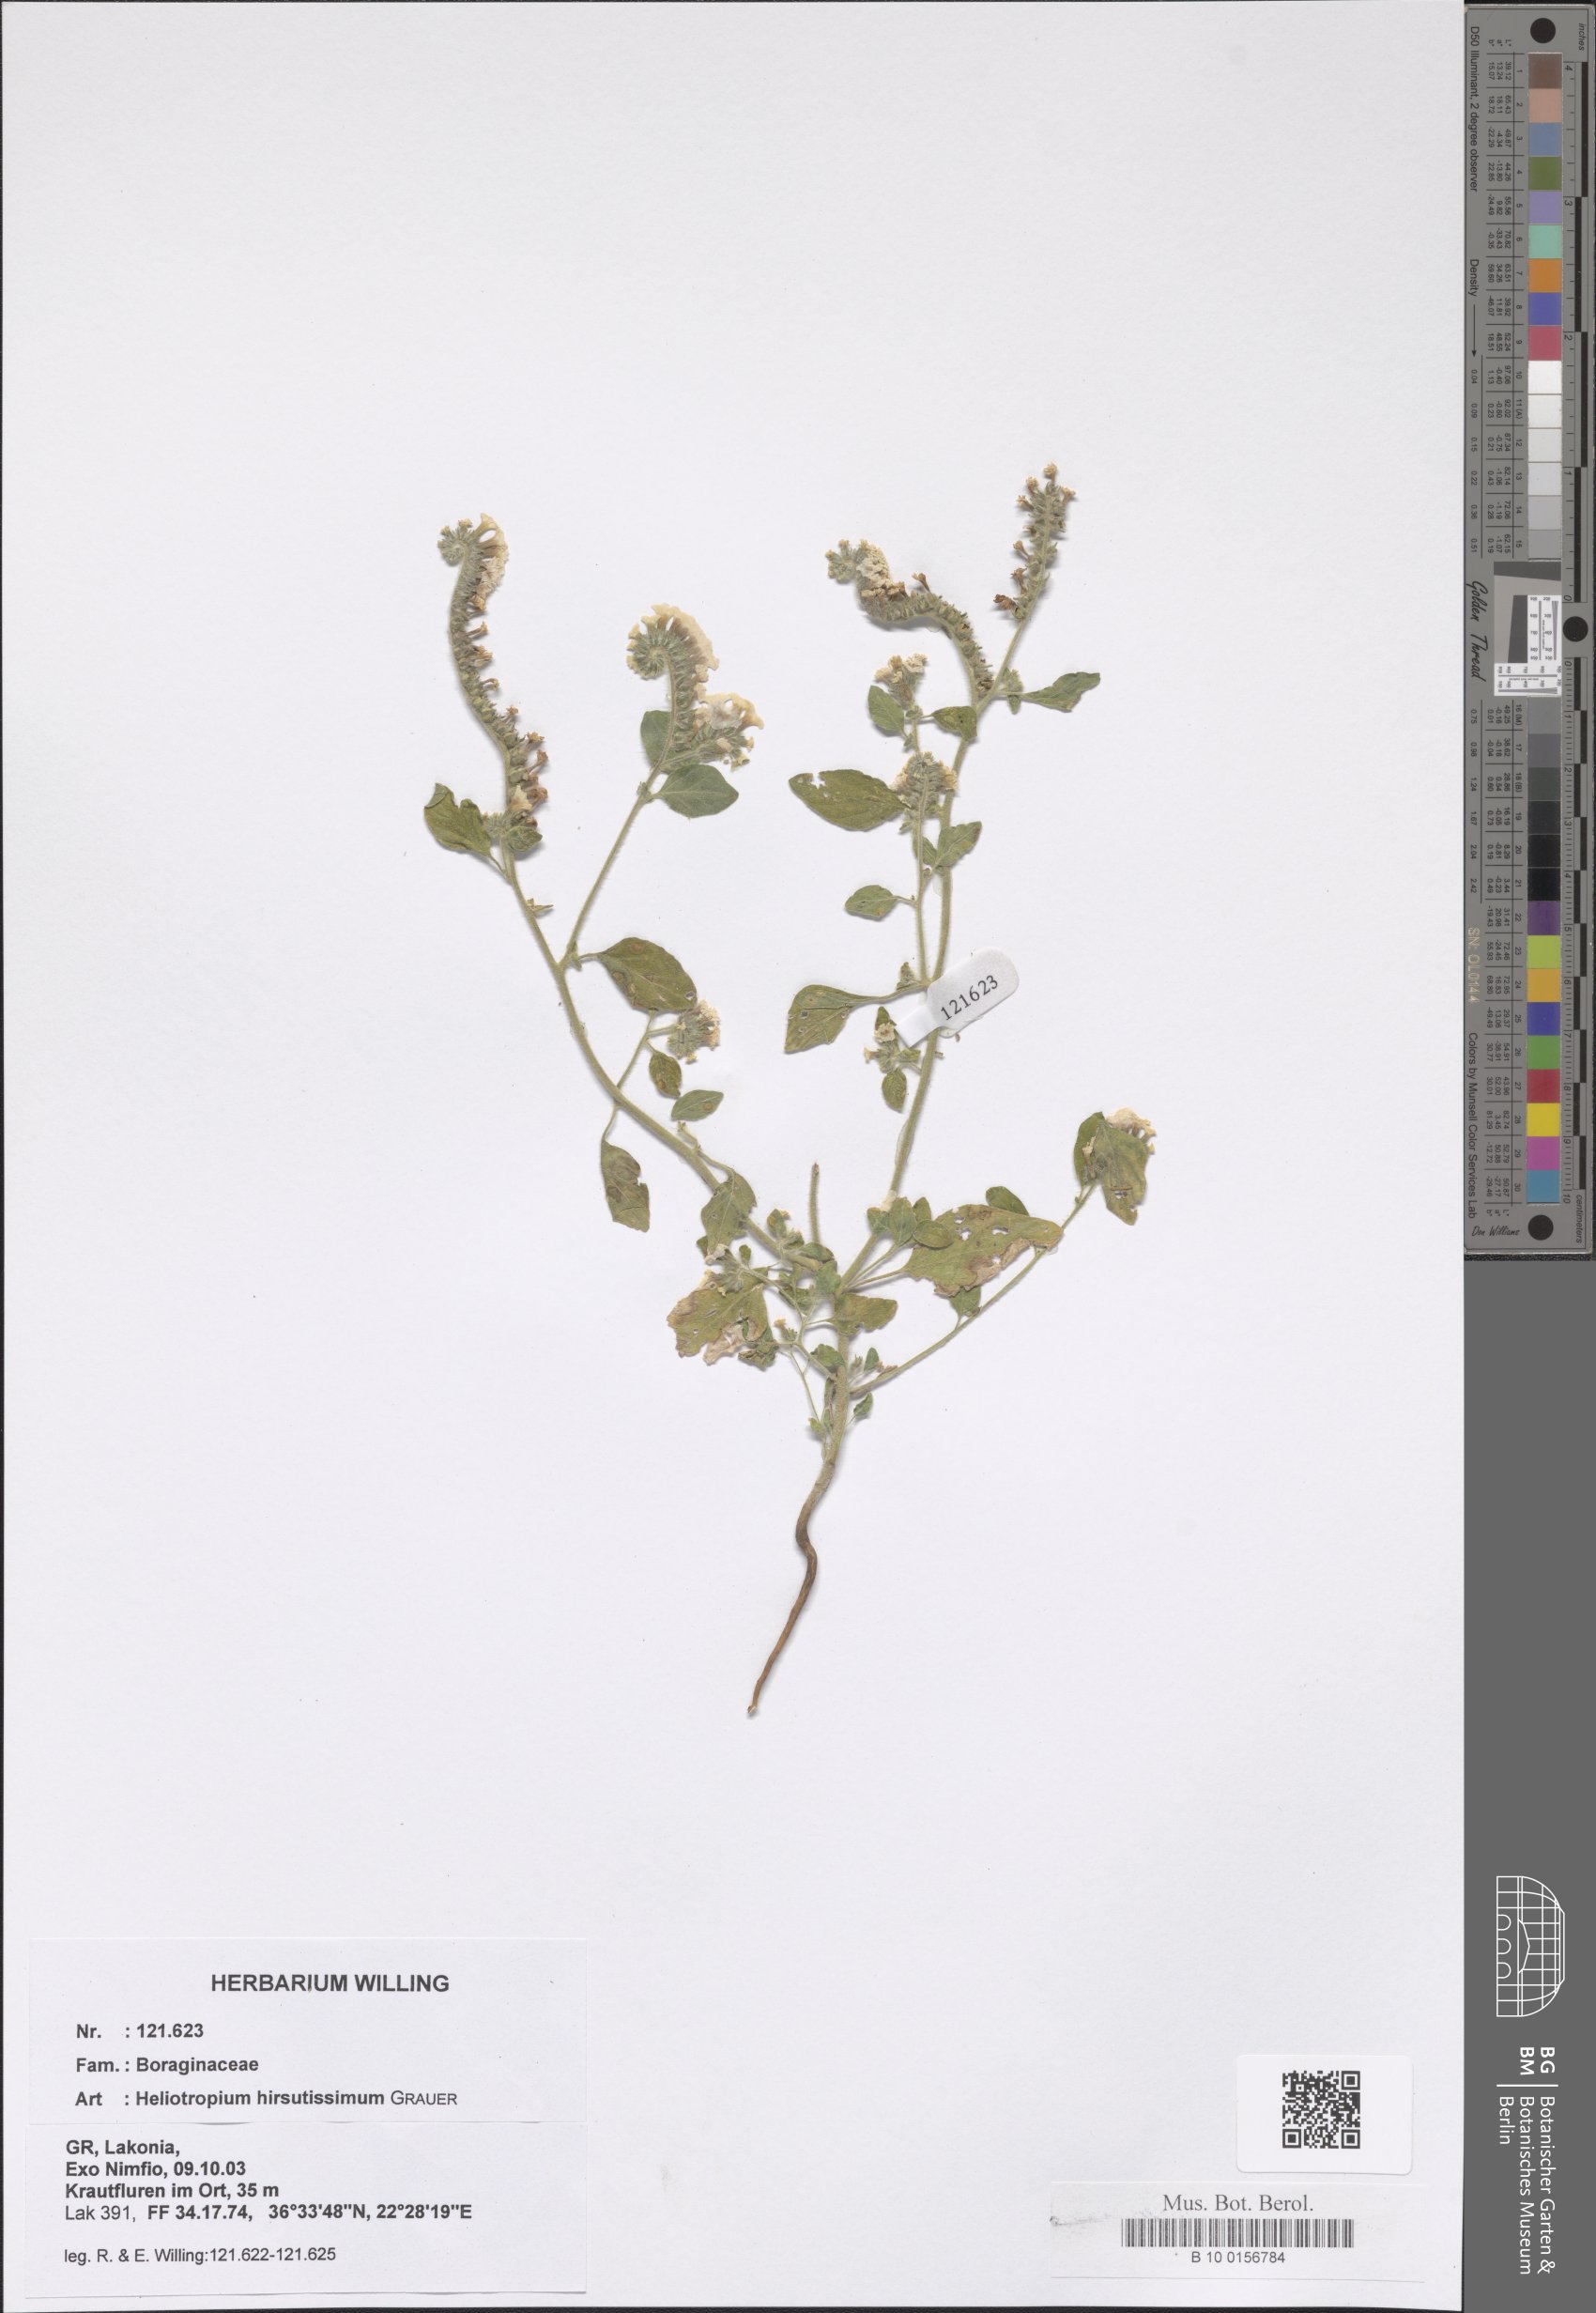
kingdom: Plantae
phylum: Tracheophyta
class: Magnoliopsida
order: Boraginales
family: Heliotropiaceae
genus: Heliotropium
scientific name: Heliotropium hirsutissimum
